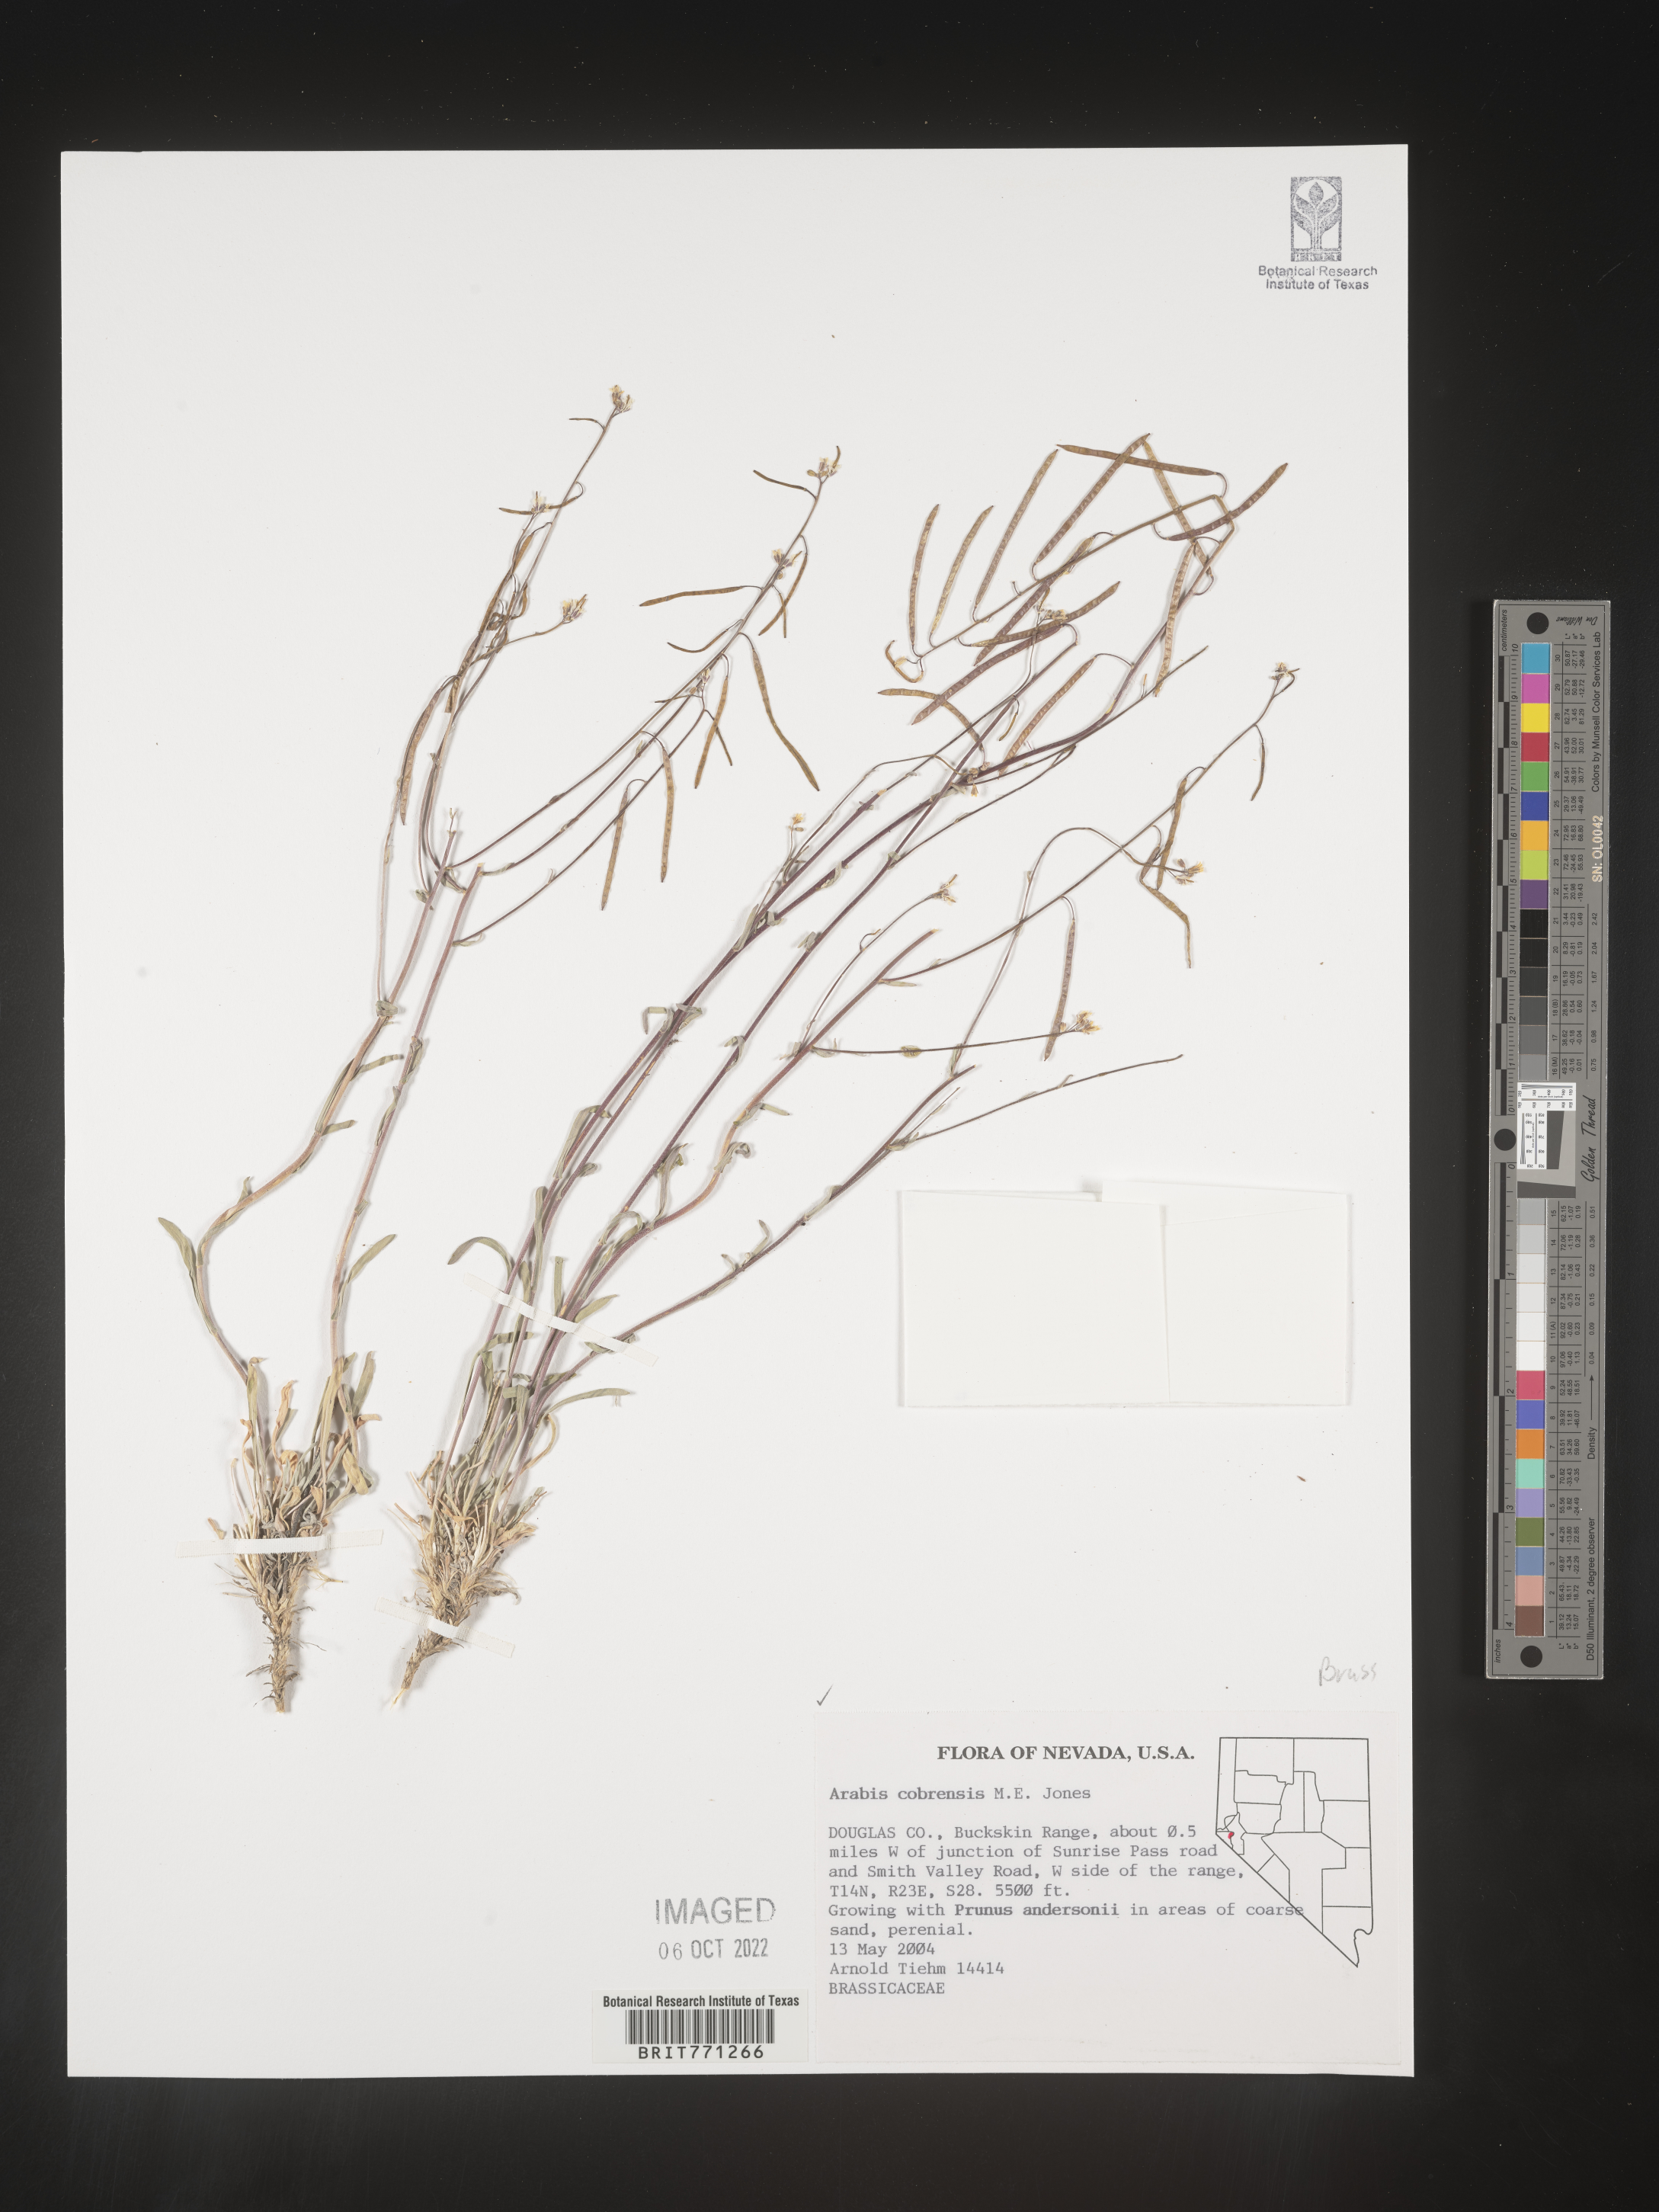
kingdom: Plantae
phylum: Tracheophyta
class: Magnoliopsida
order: Brassicales
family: Brassicaceae
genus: Arabis
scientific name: Arabis
